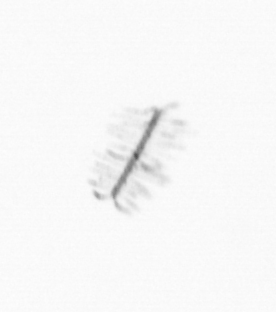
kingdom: Chromista
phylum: Ochrophyta
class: Bacillariophyceae
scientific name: Bacillariophyceae
